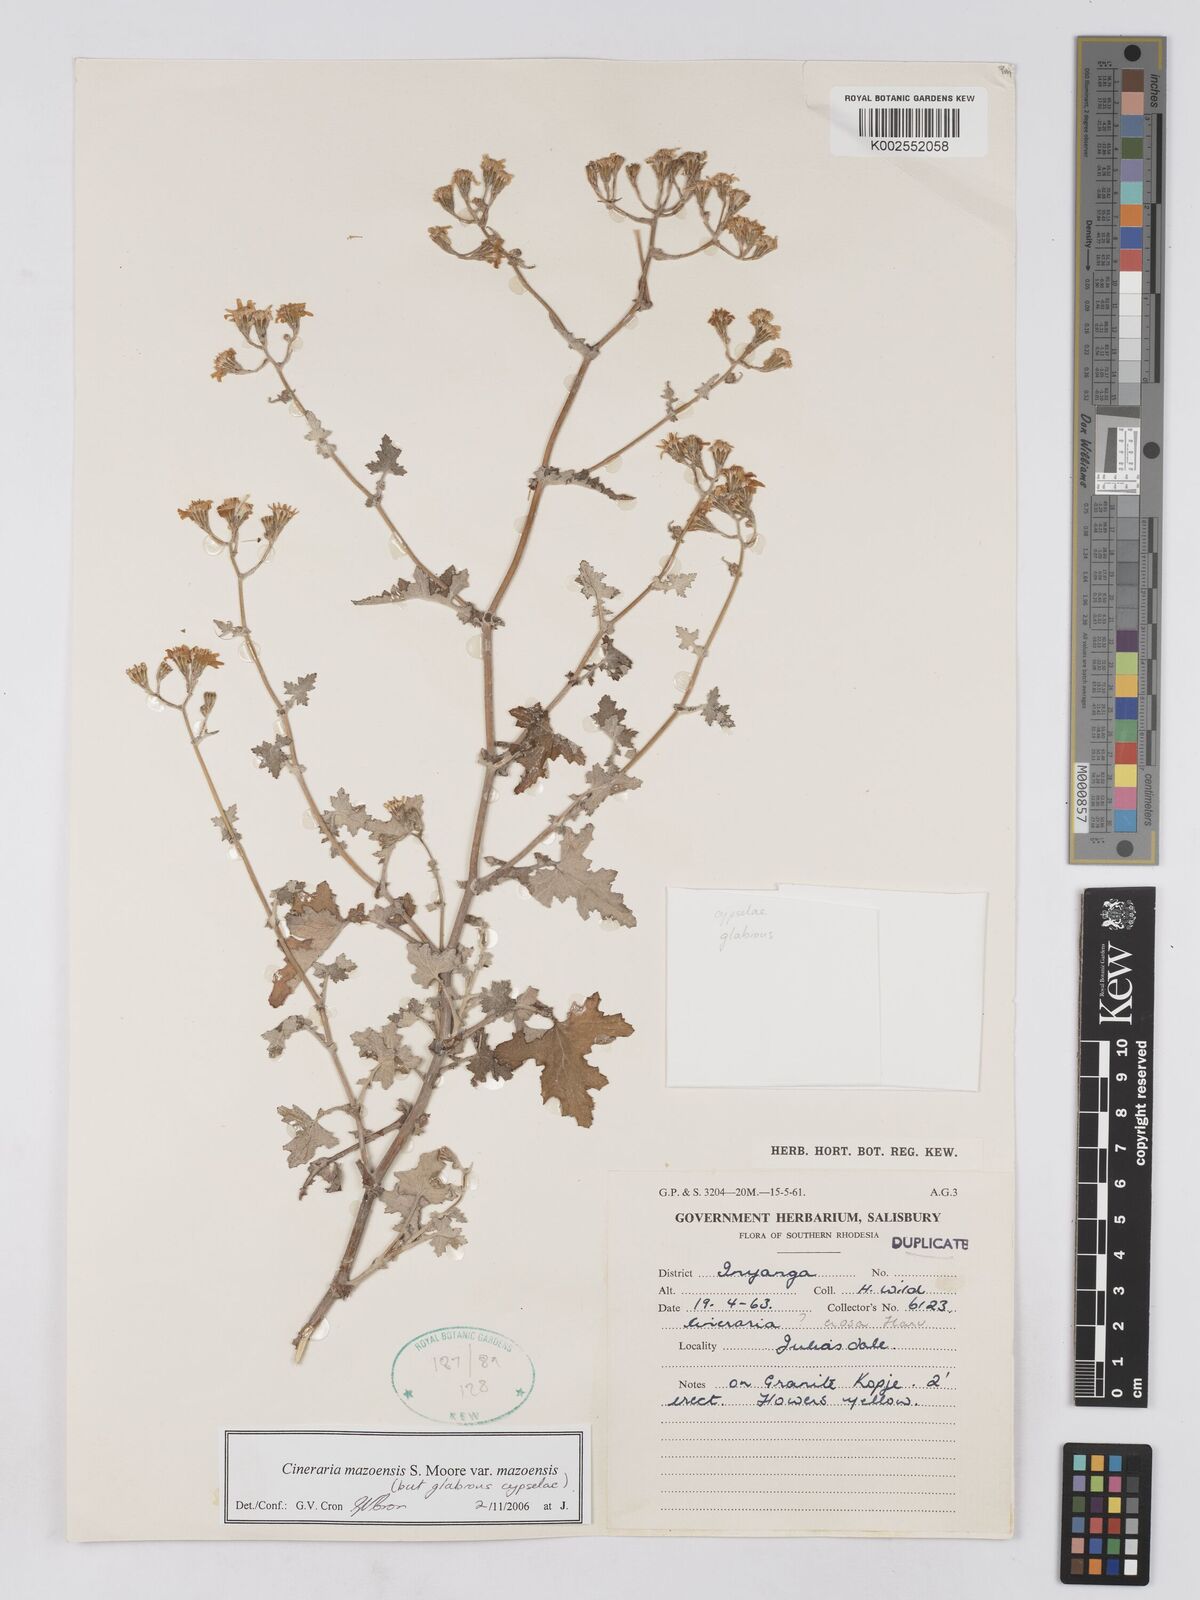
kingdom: Plantae
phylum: Tracheophyta
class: Magnoliopsida
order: Asterales
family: Asteraceae
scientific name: Asteraceae
